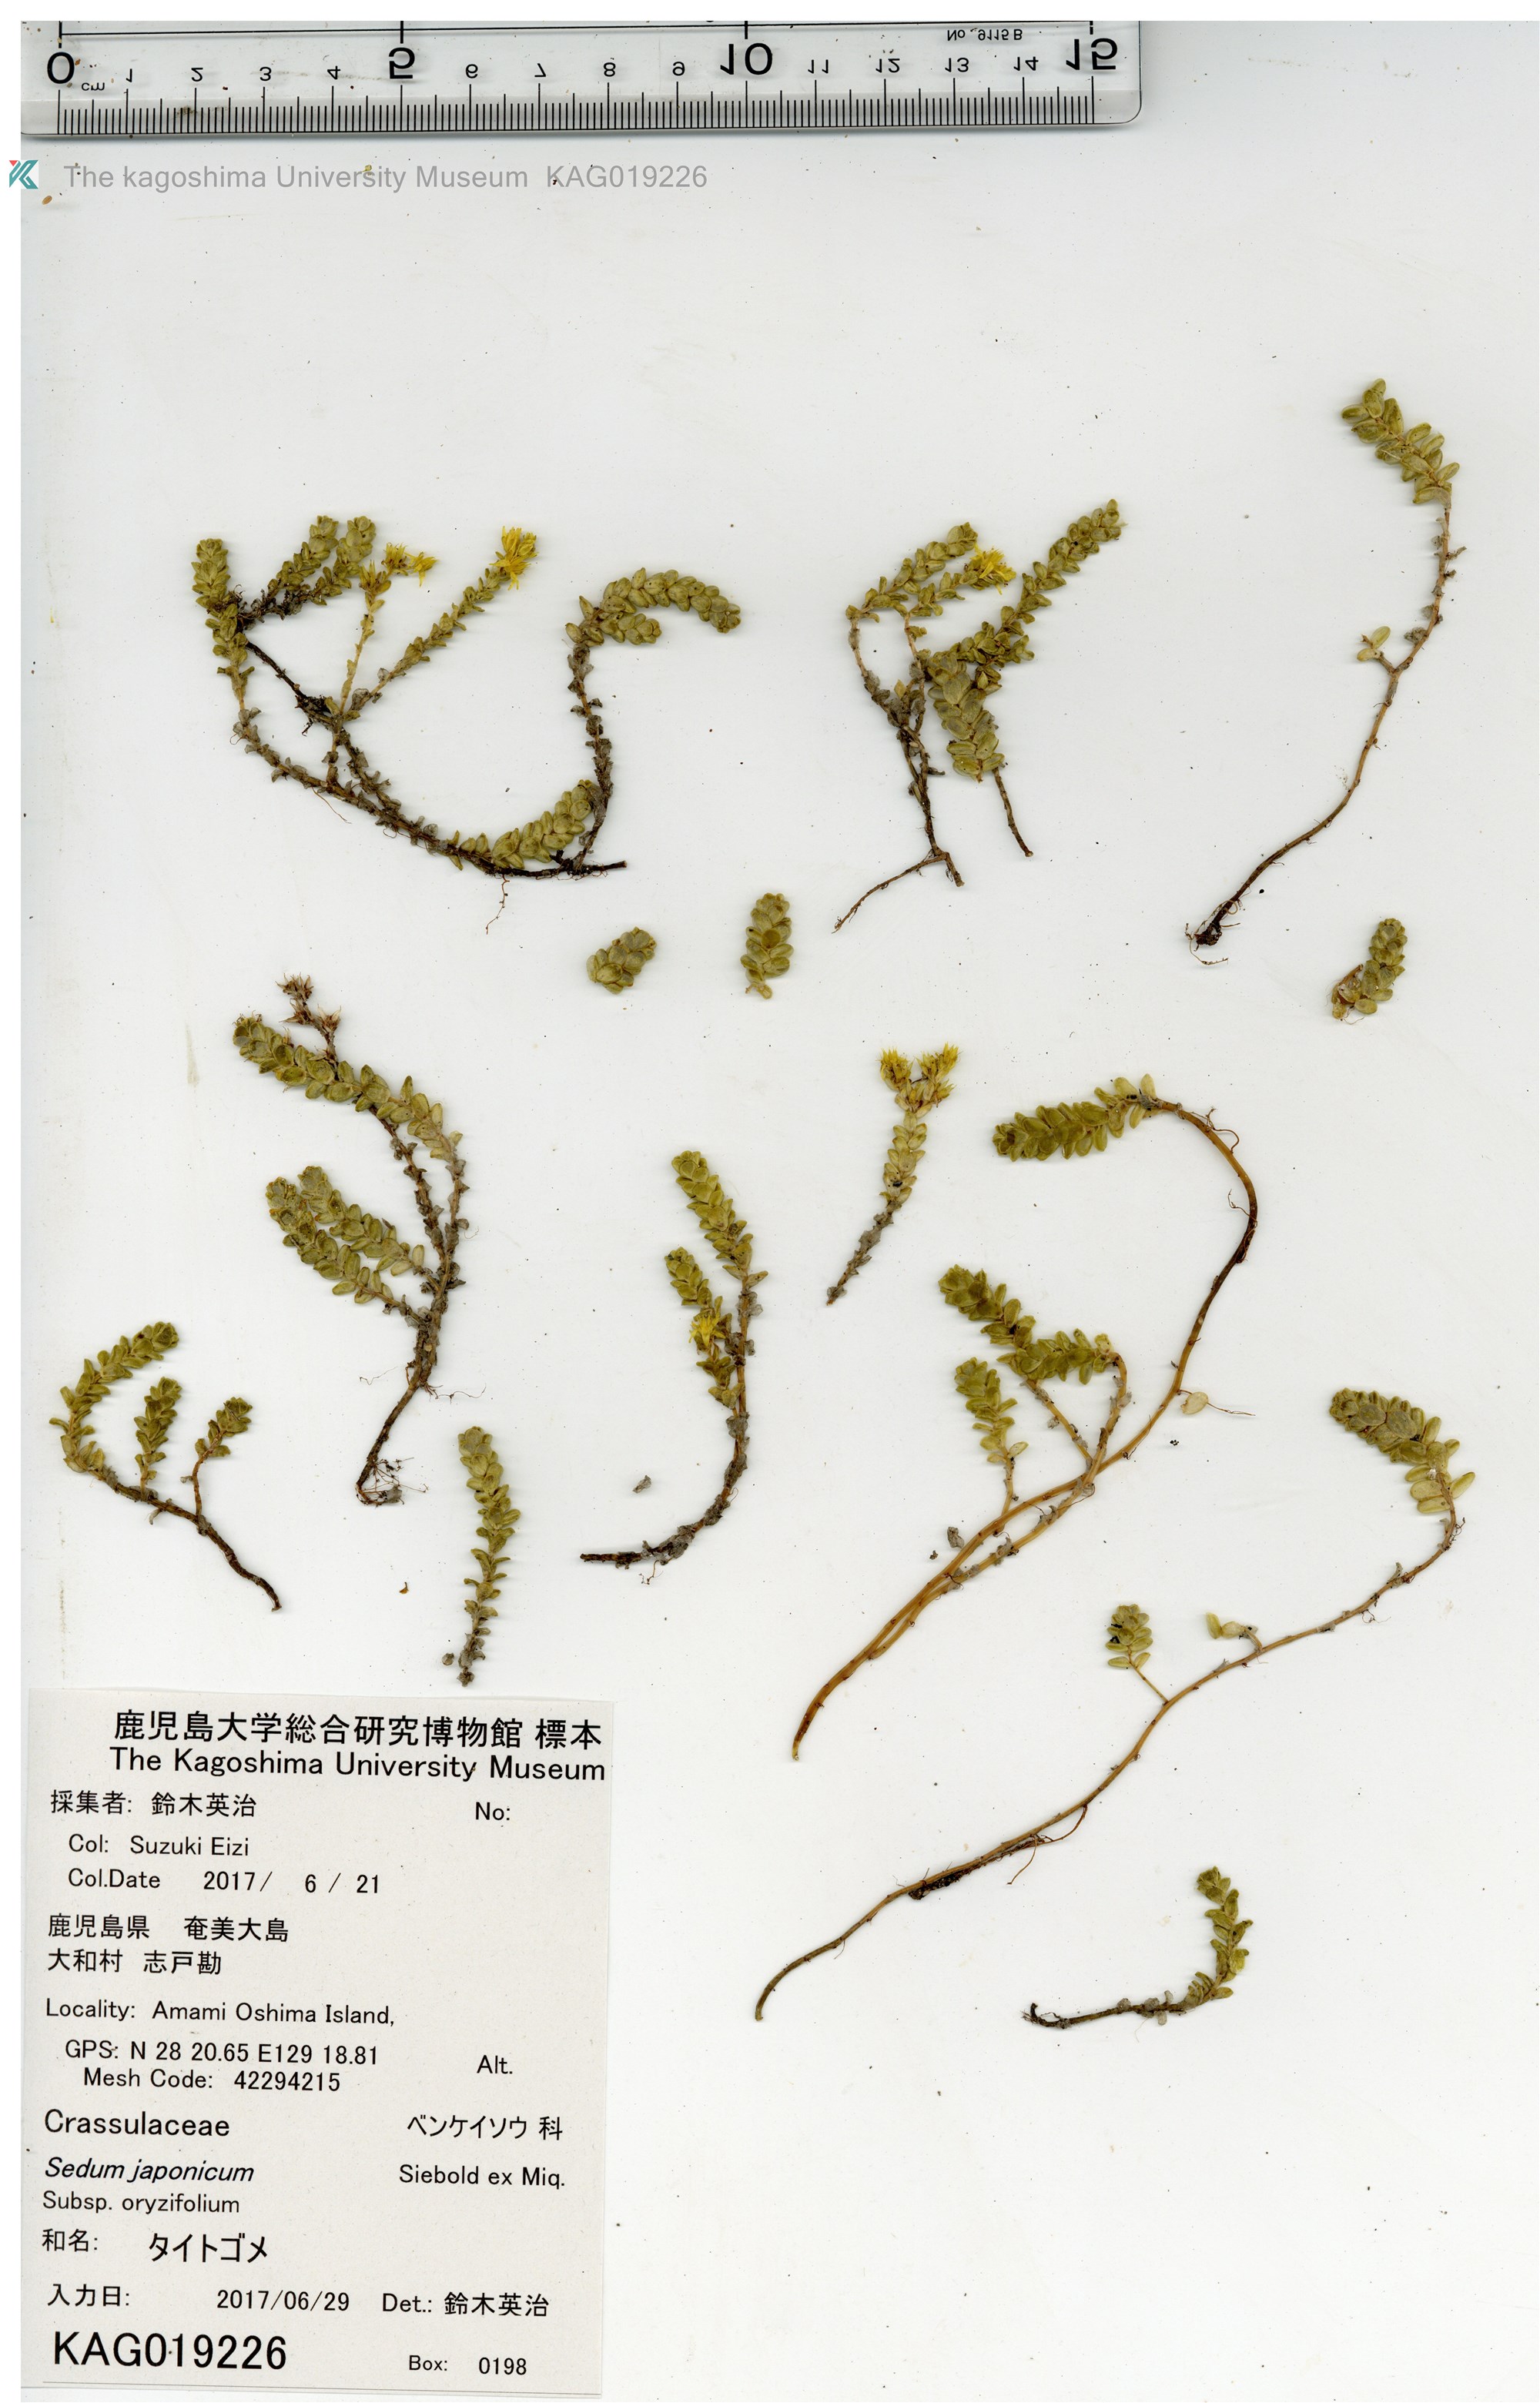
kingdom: Plantae
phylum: Tracheophyta
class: Magnoliopsida
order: Saxifragales
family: Crassulaceae
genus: Sedum
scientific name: Sedum japonicum
